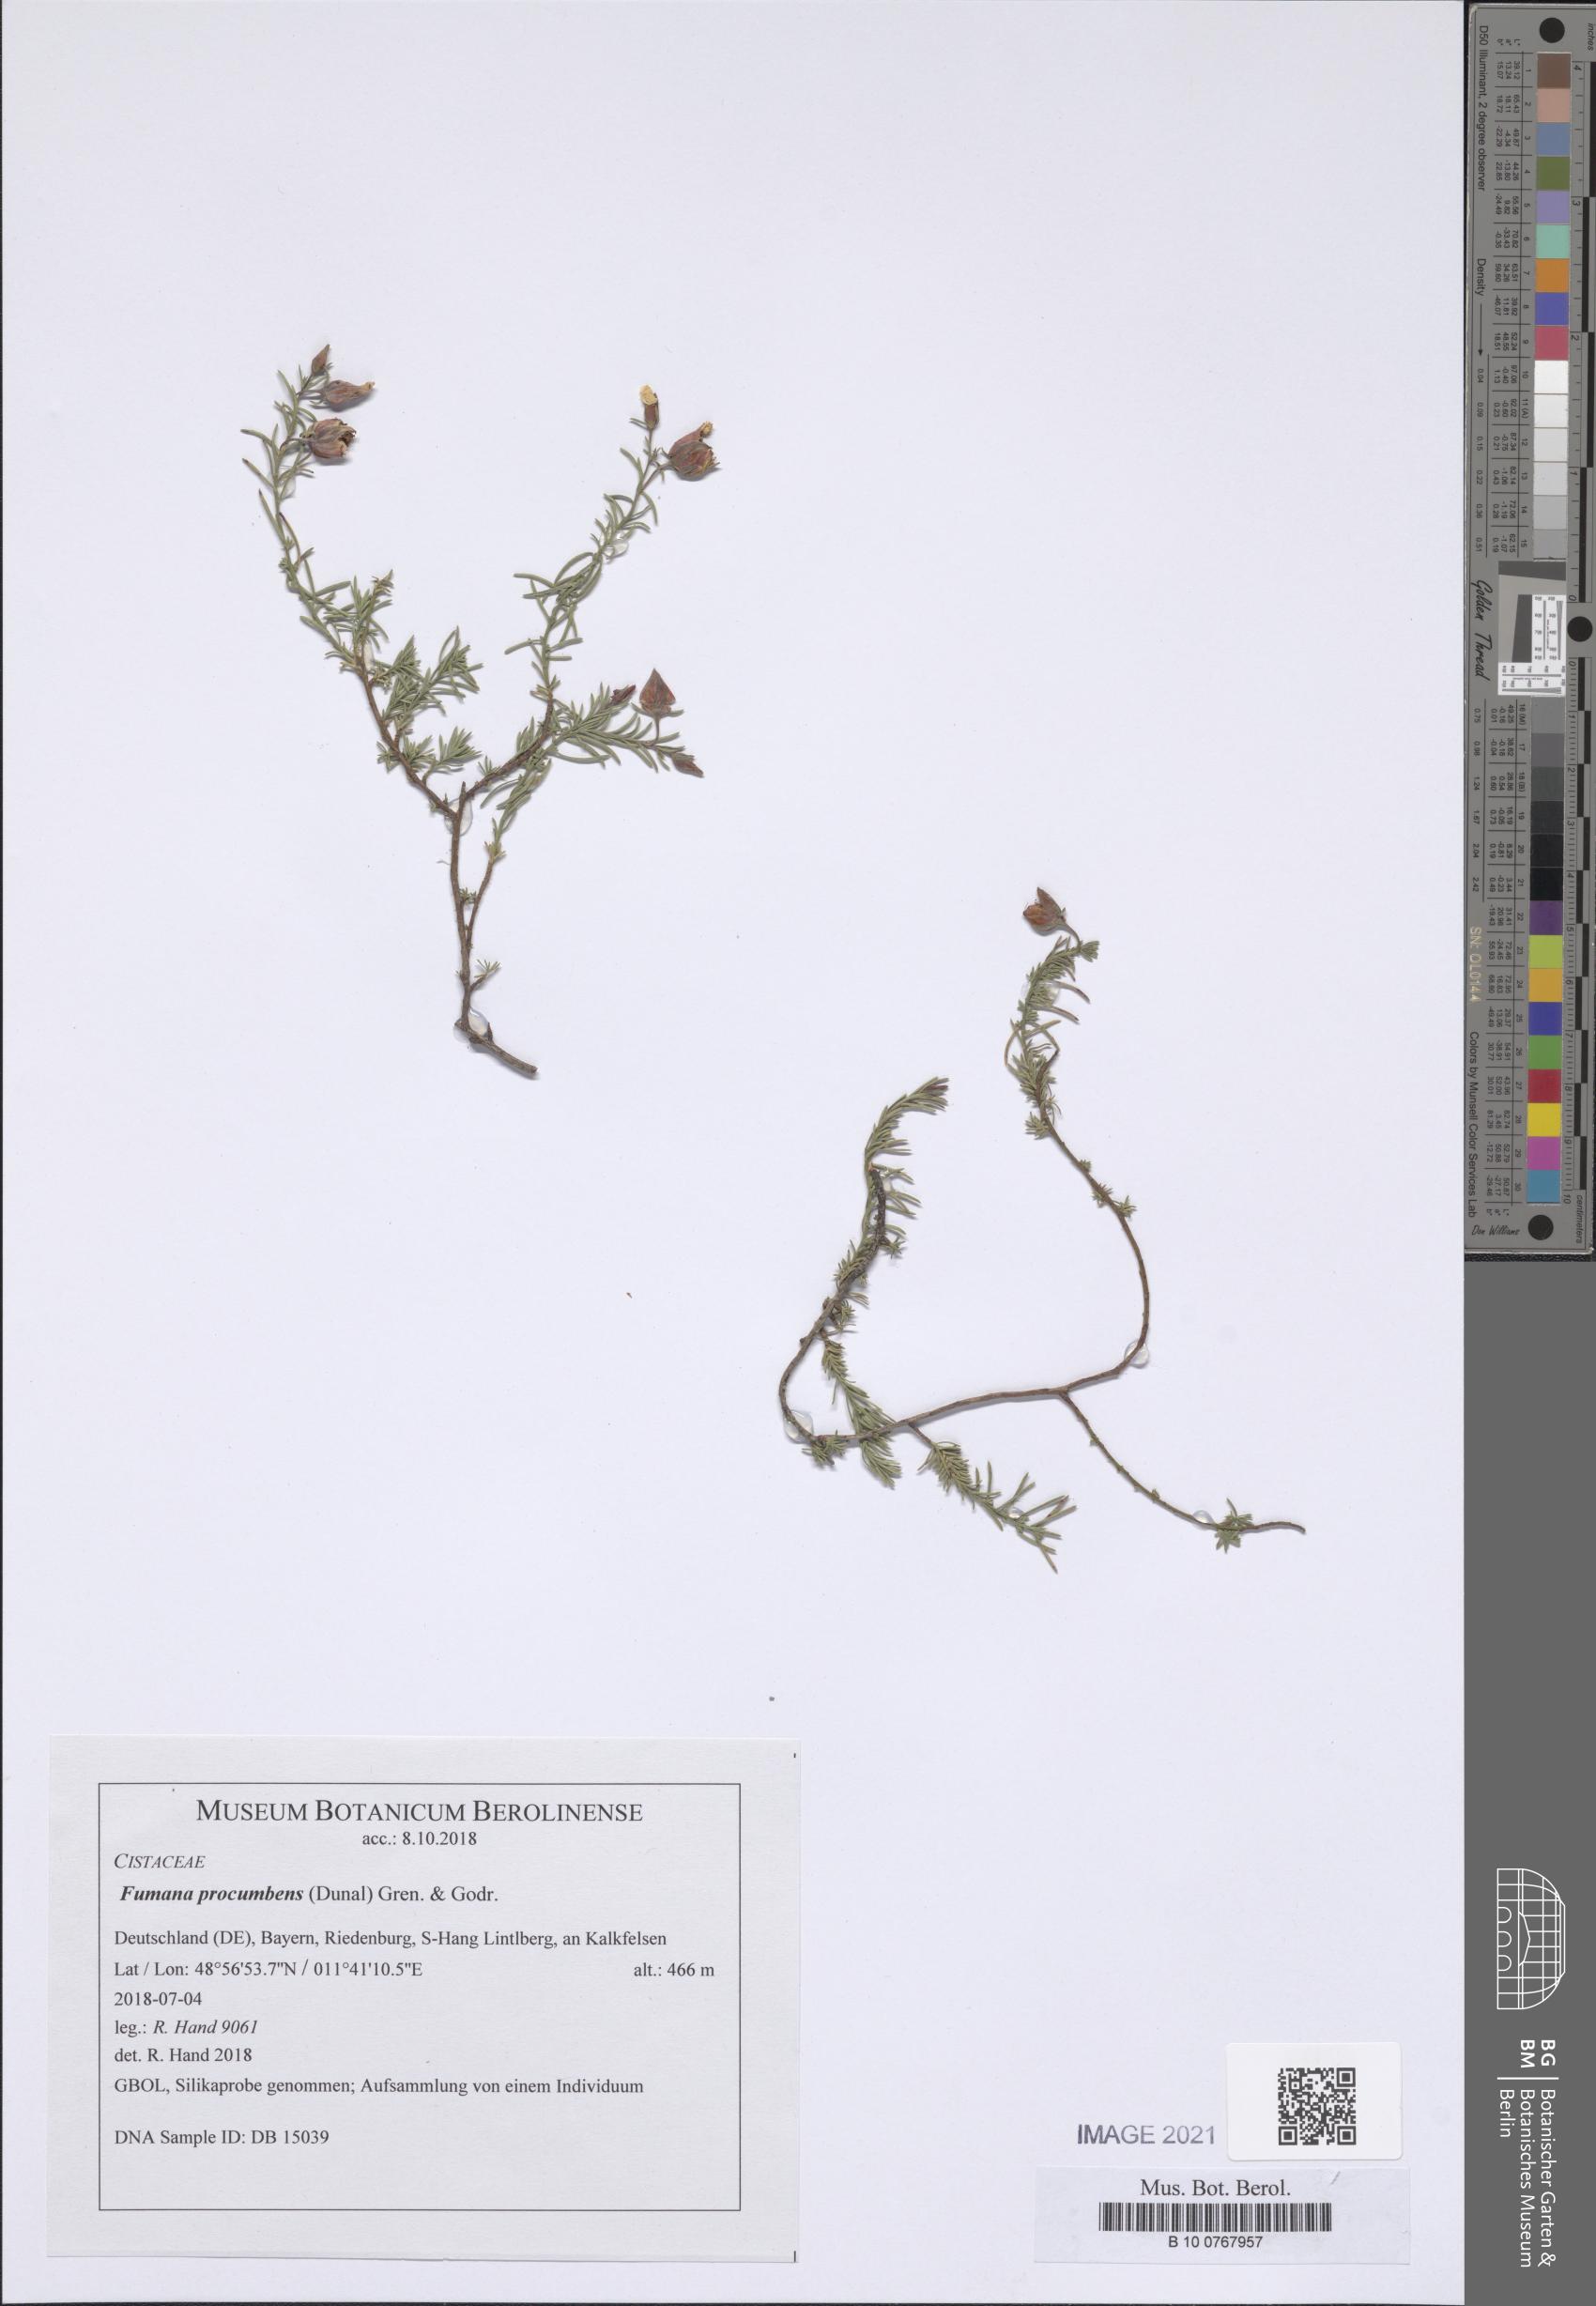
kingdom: Plantae
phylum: Tracheophyta
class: Magnoliopsida
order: Malvales
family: Cistaceae
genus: Fumana
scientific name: Fumana procumbens
